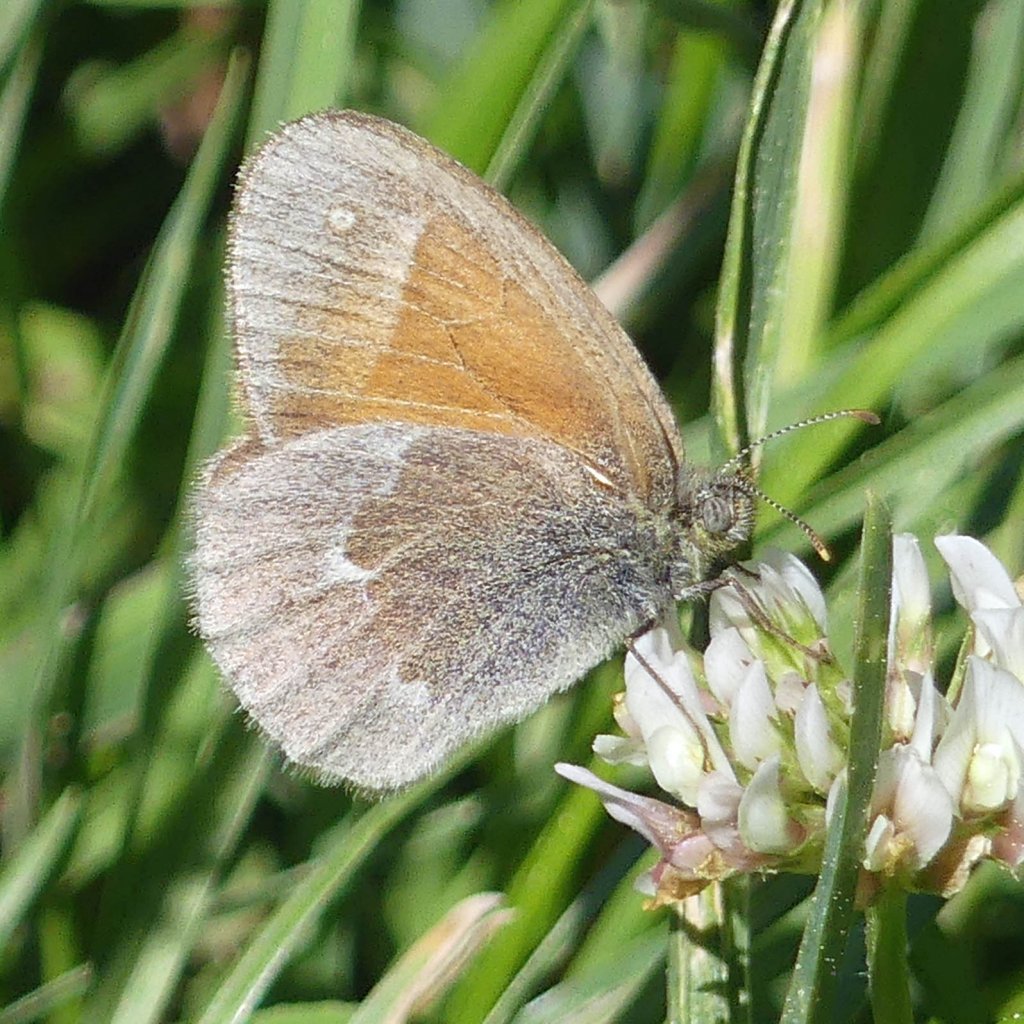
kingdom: Animalia
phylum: Arthropoda
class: Insecta
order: Lepidoptera
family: Nymphalidae
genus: Coenonympha
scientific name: Coenonympha tullia
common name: Large Heath
